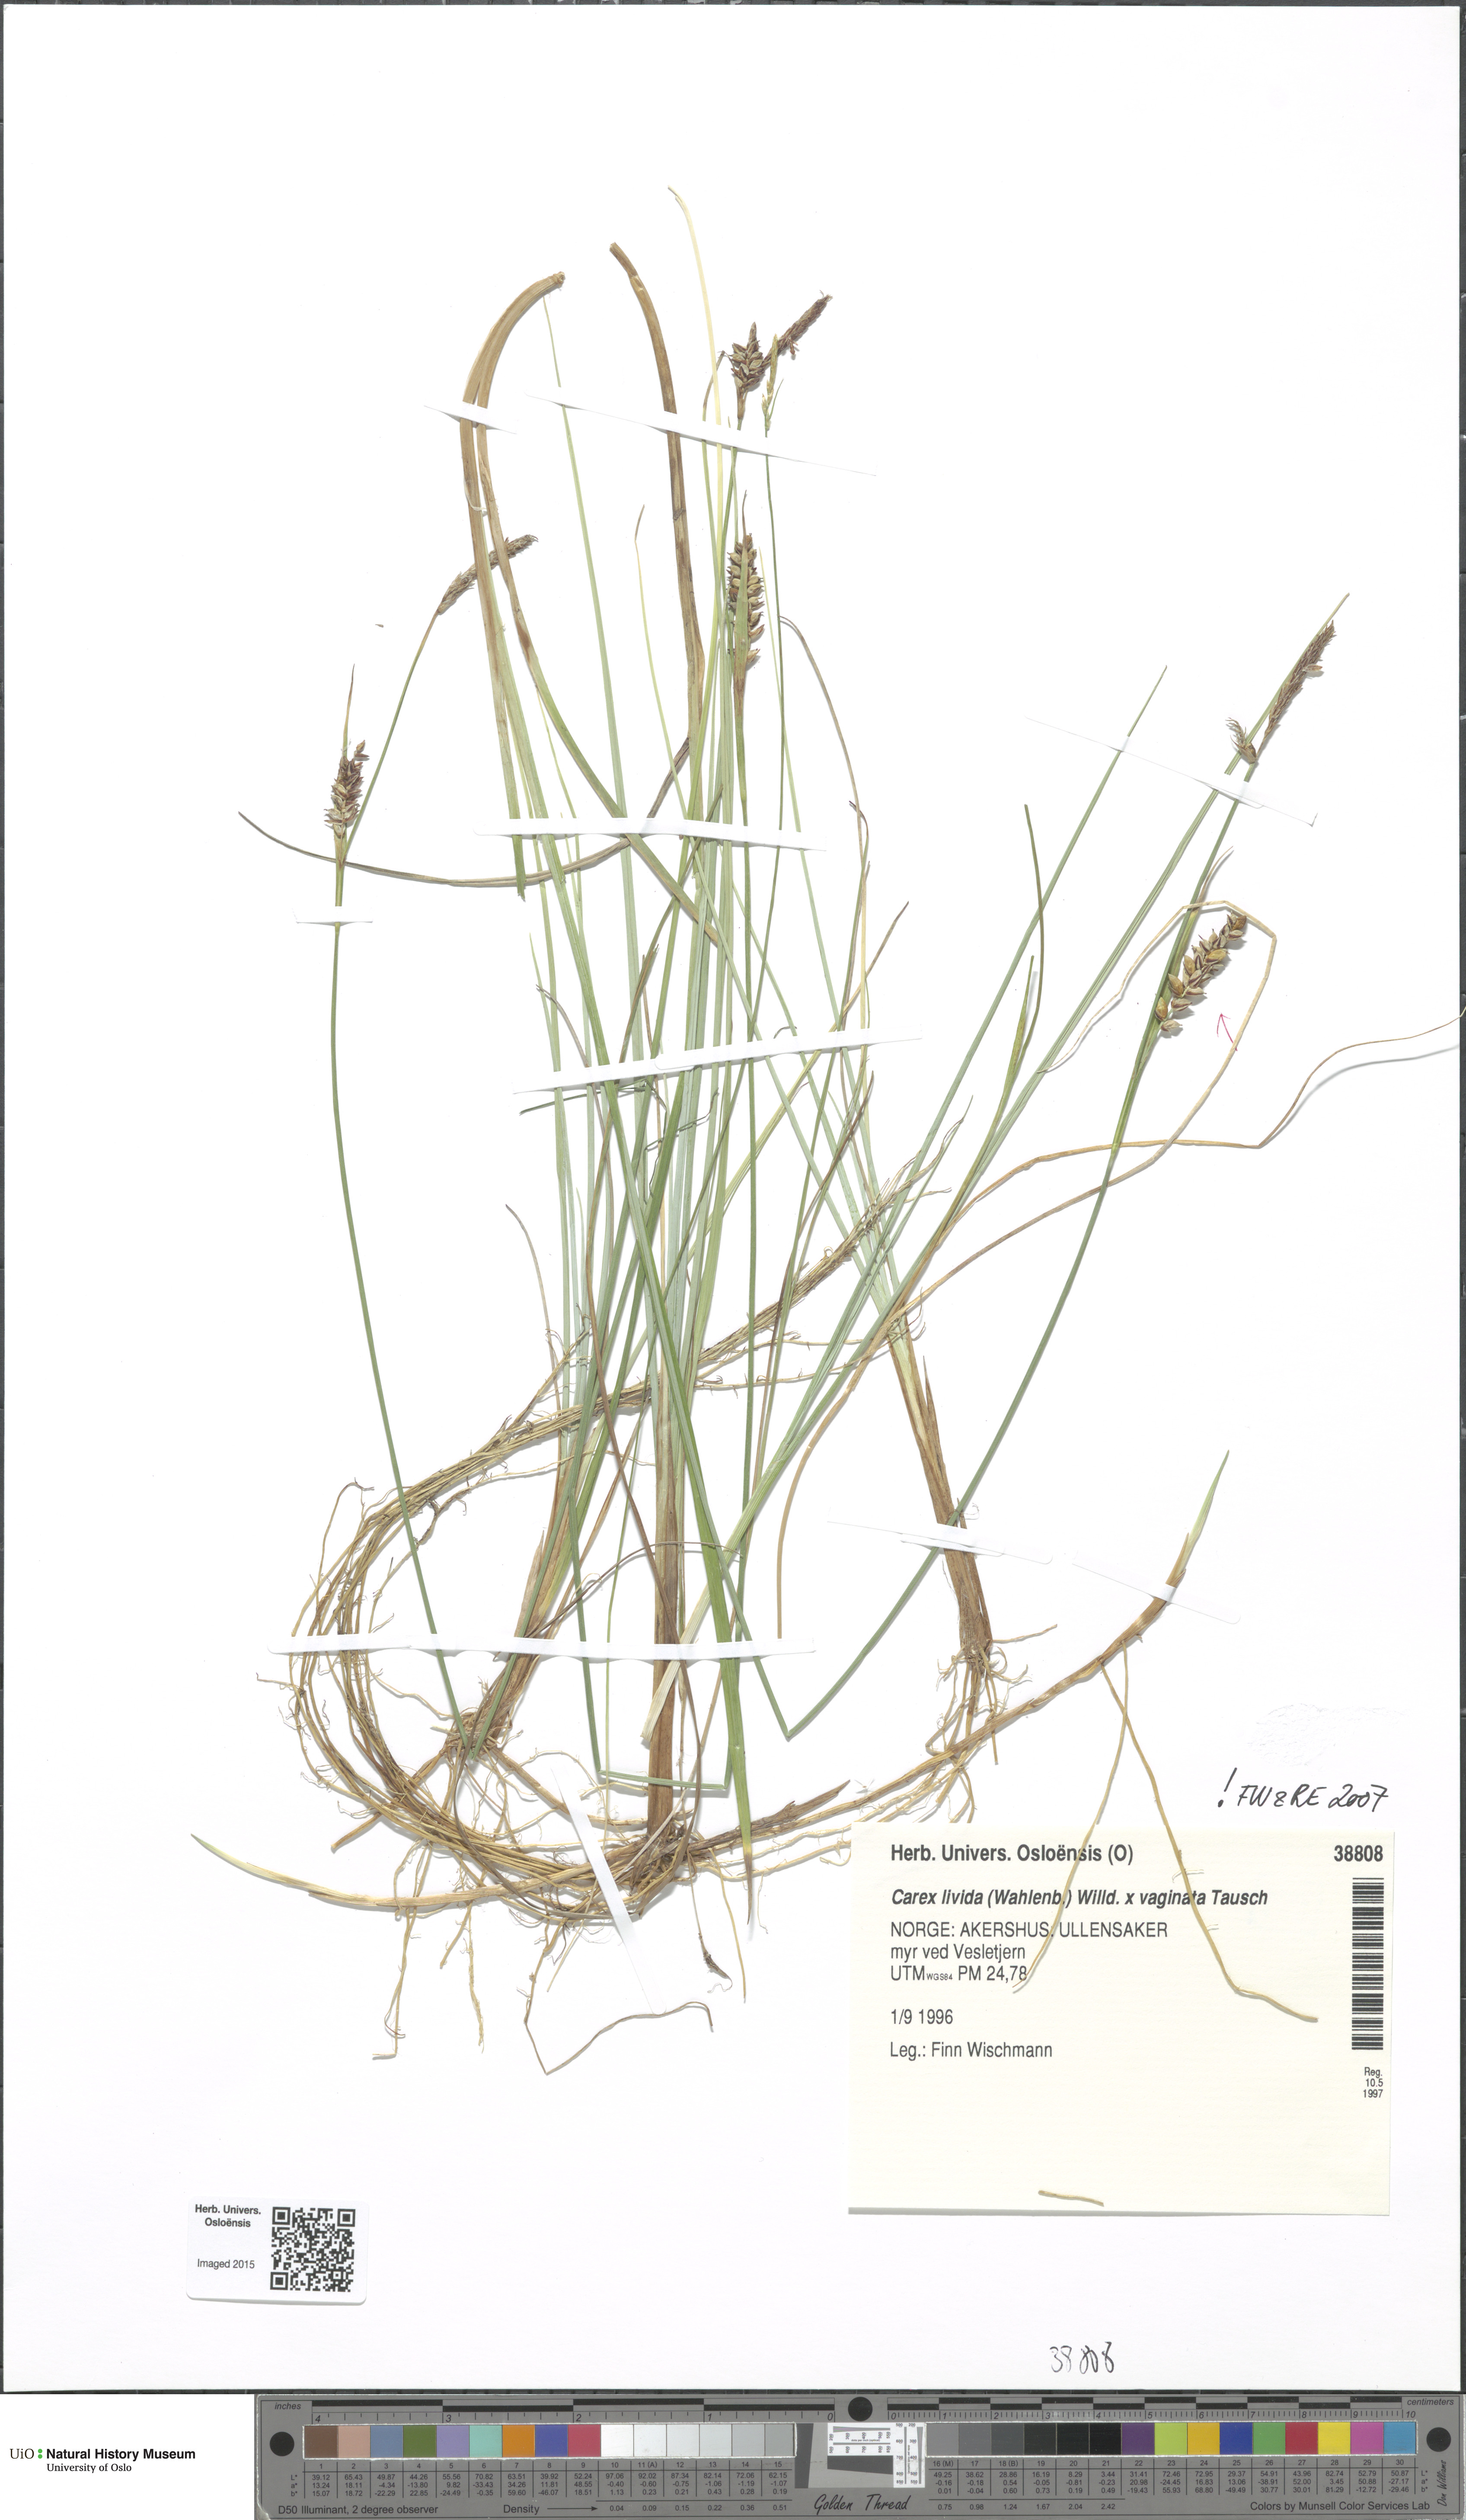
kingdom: Plantae
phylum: Tracheophyta
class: Liliopsida
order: Poales
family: Cyperaceae
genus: Carex
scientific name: Carex
